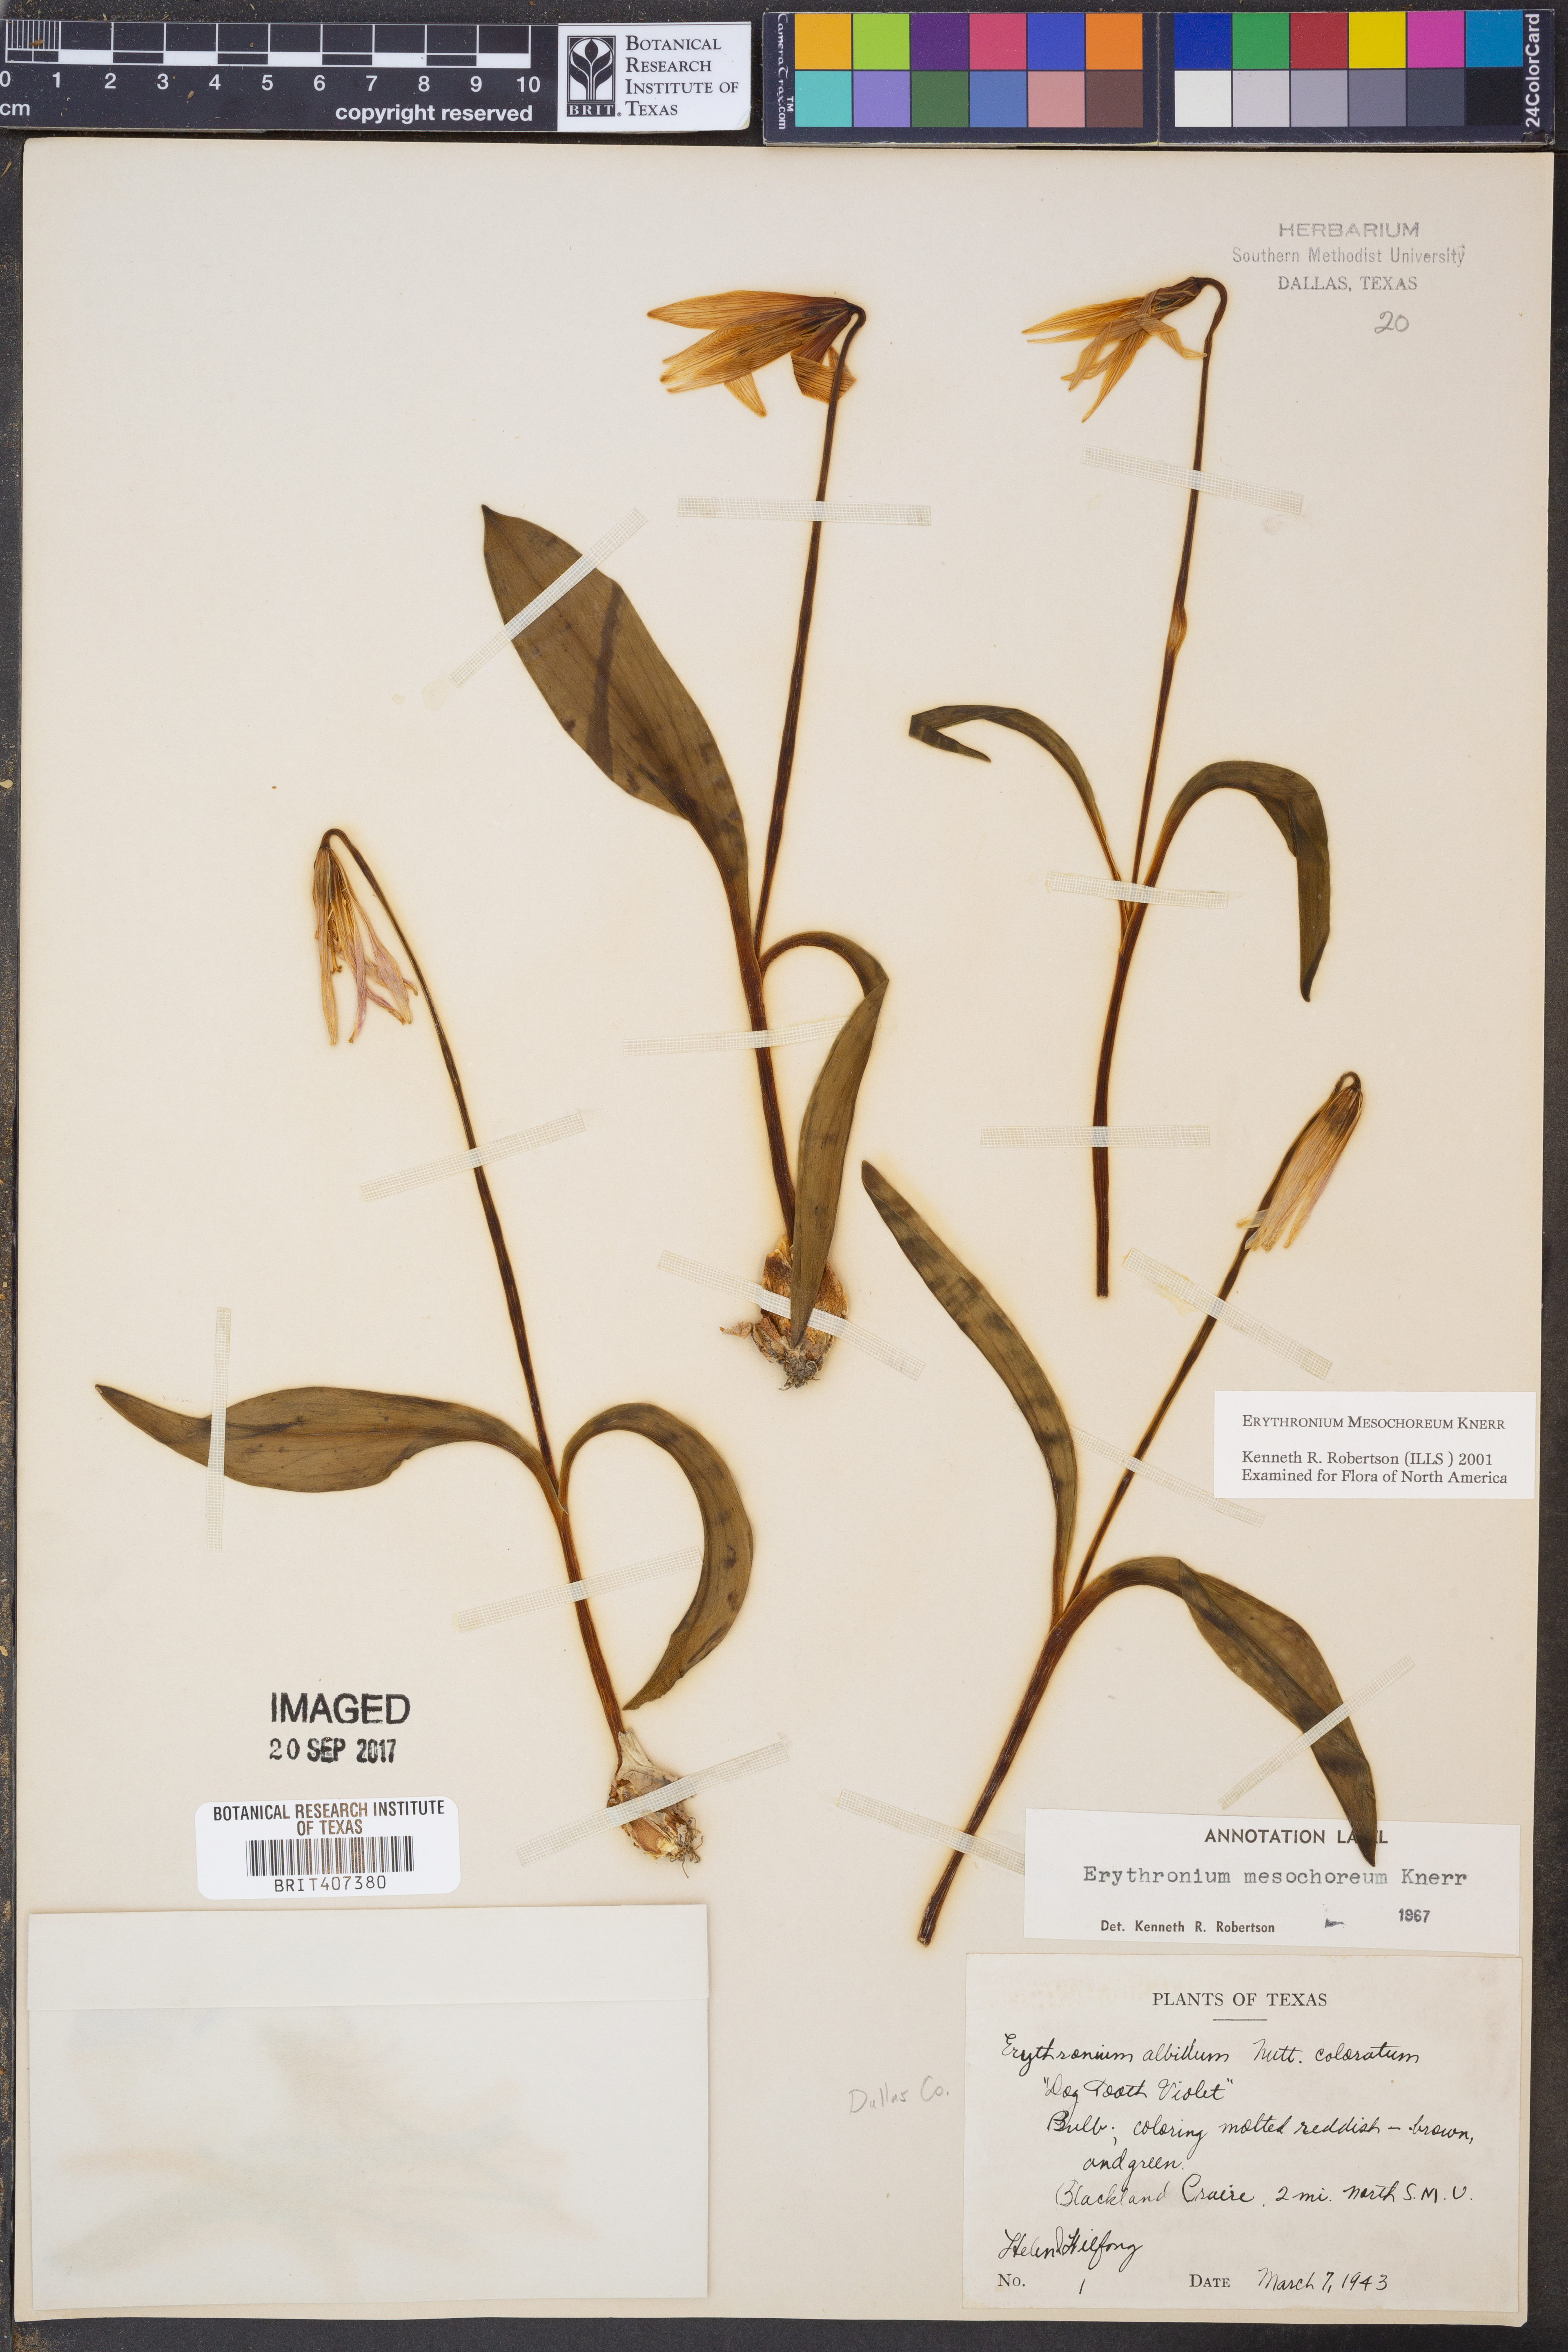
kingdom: Plantae
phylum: Tracheophyta
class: Liliopsida
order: Liliales
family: Liliaceae
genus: Erythronium
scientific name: Erythronium mesochoreum
